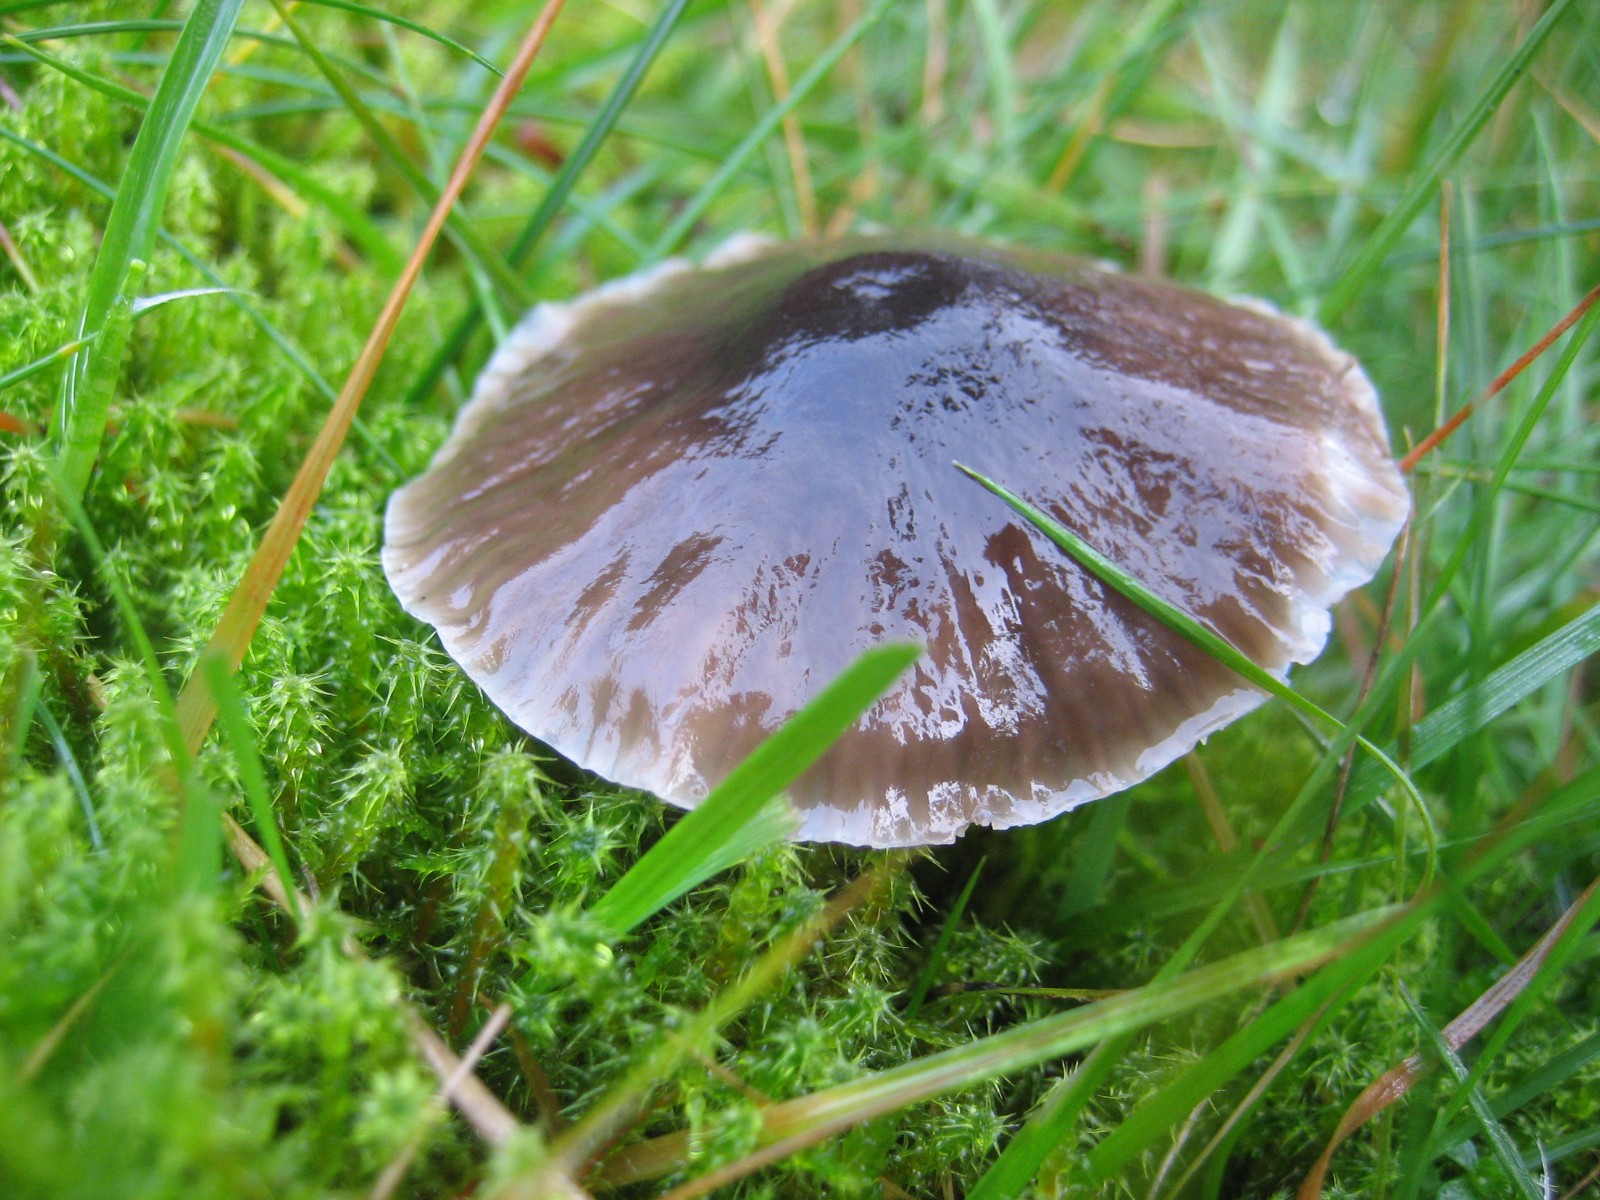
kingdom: Fungi
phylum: Basidiomycota
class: Agaricomycetes
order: Agaricales
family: Hygrophoraceae
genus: Gliophorus
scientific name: Gliophorus irrigatus
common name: slimet vokshat
